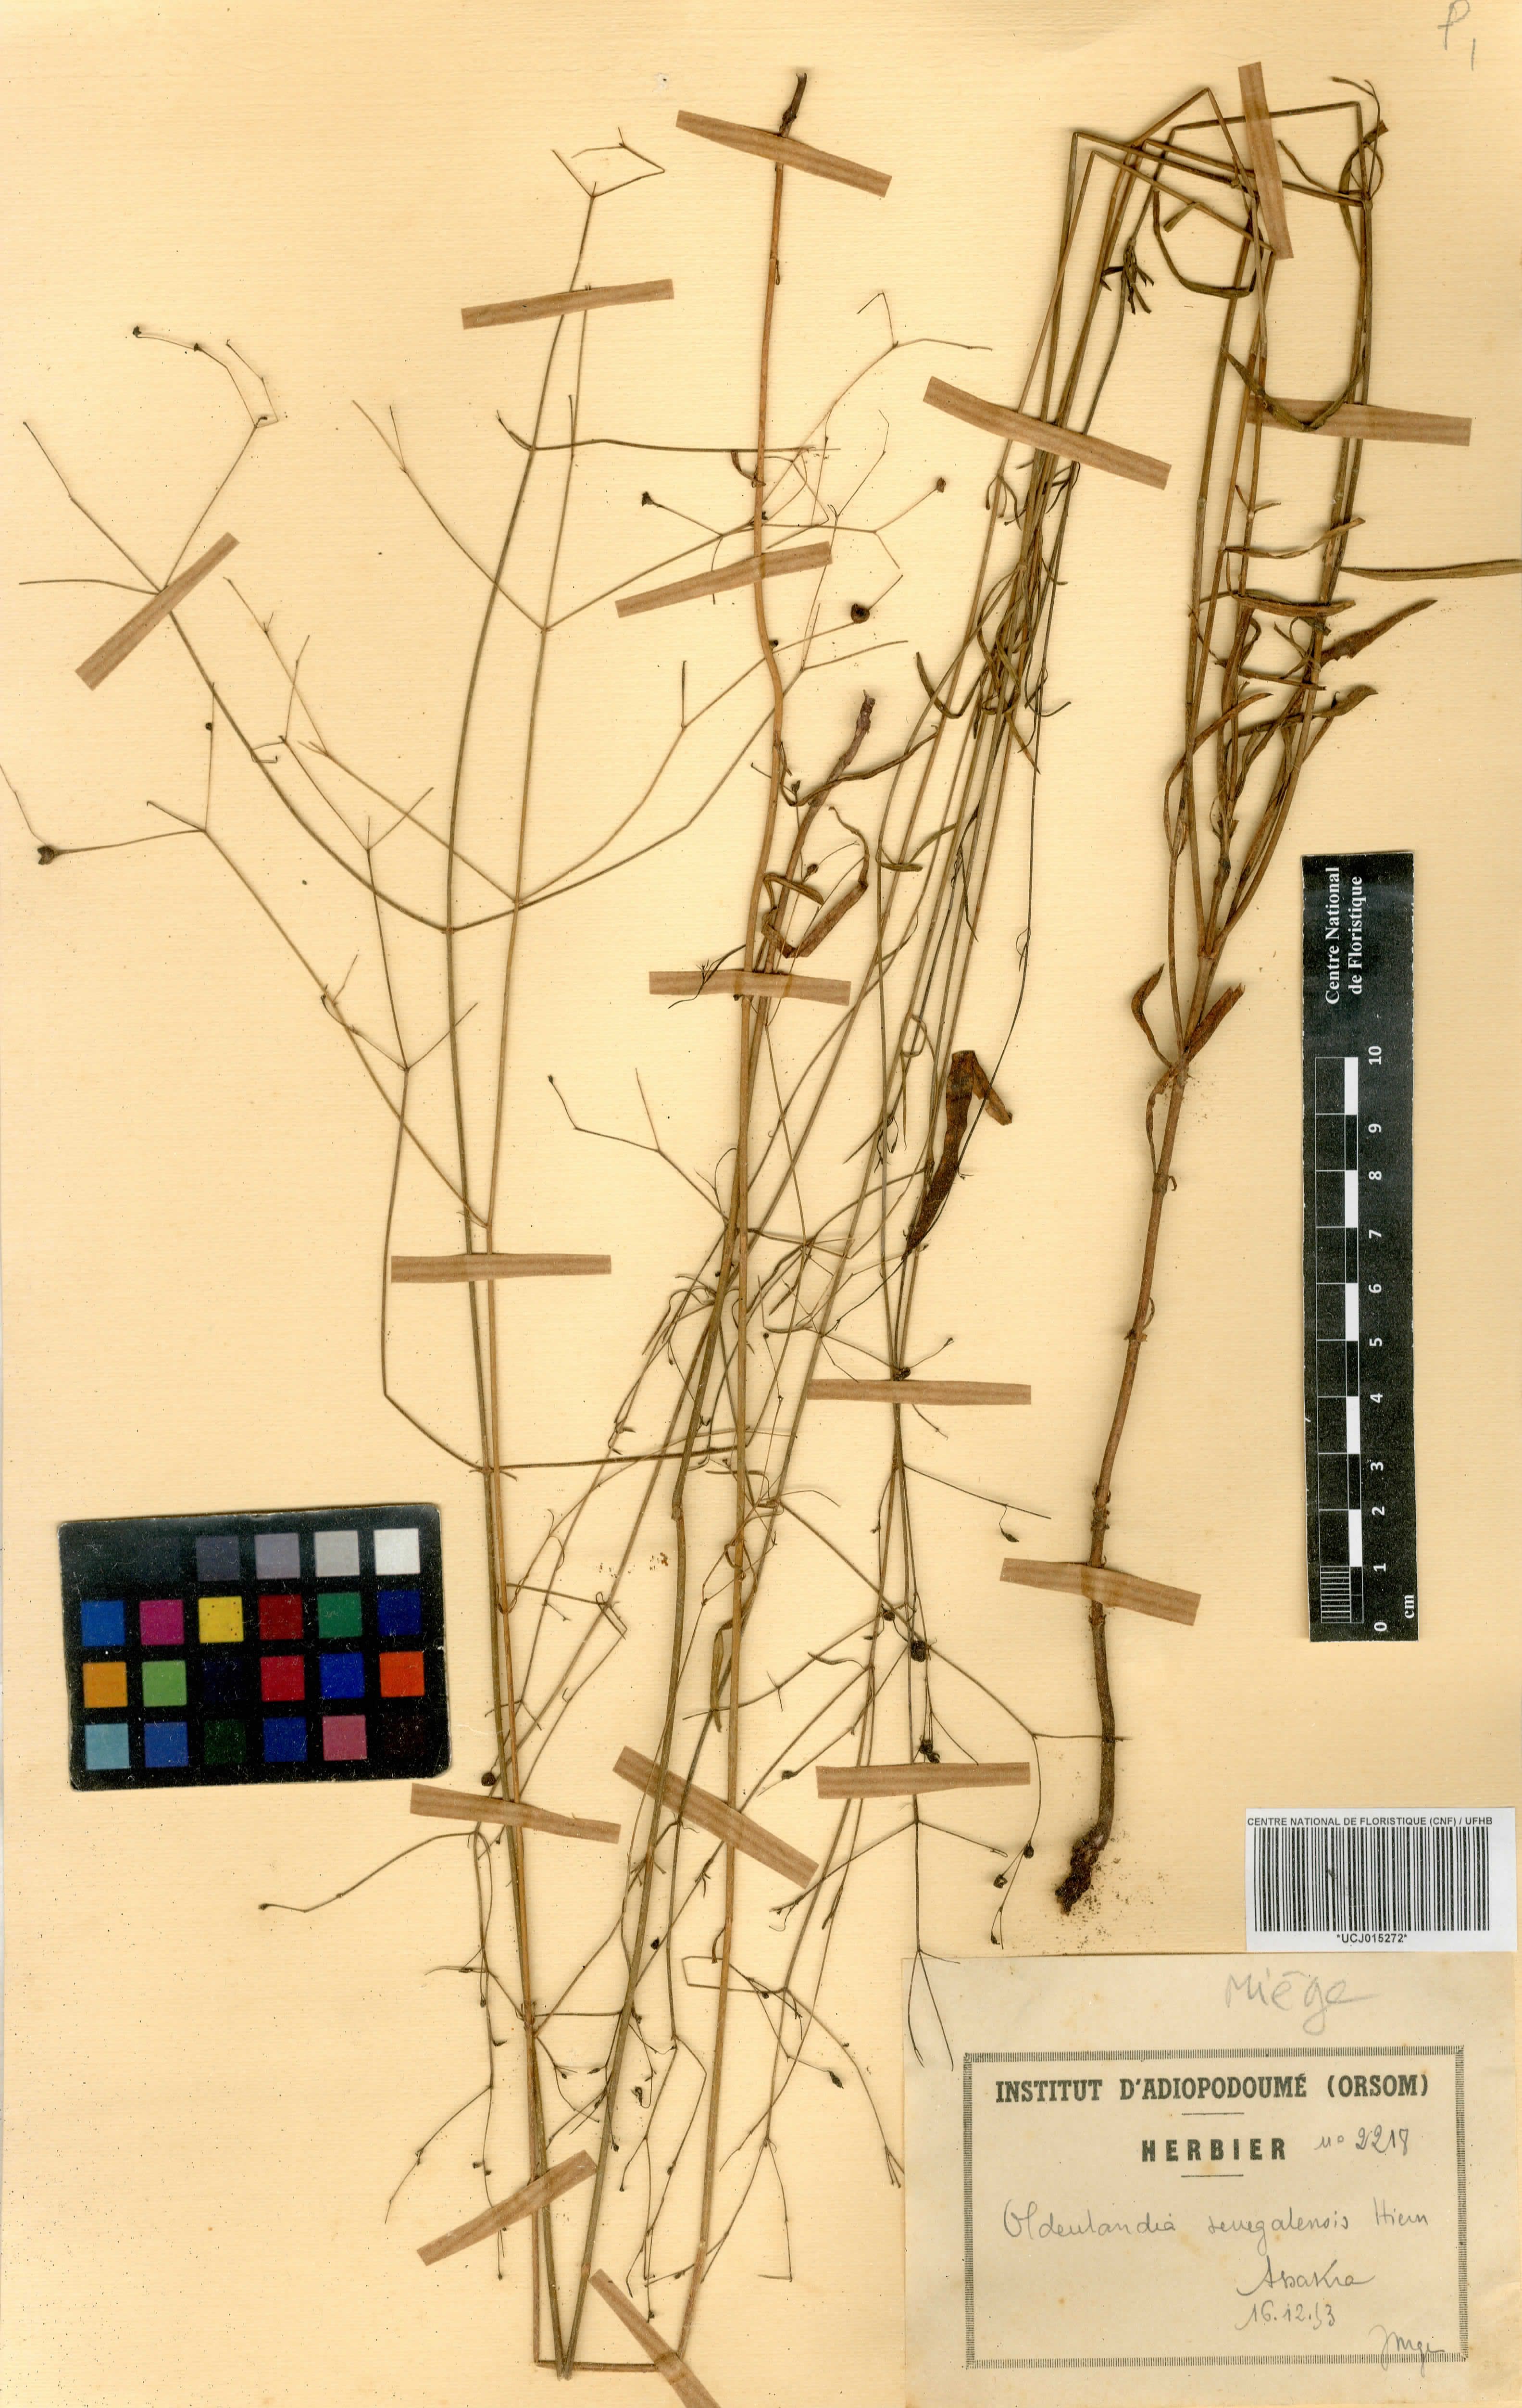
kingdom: Plantae
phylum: Tracheophyta
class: Magnoliopsida
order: Gentianales
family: Rubiaceae
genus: Kohautia
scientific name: Kohautia tenuis
